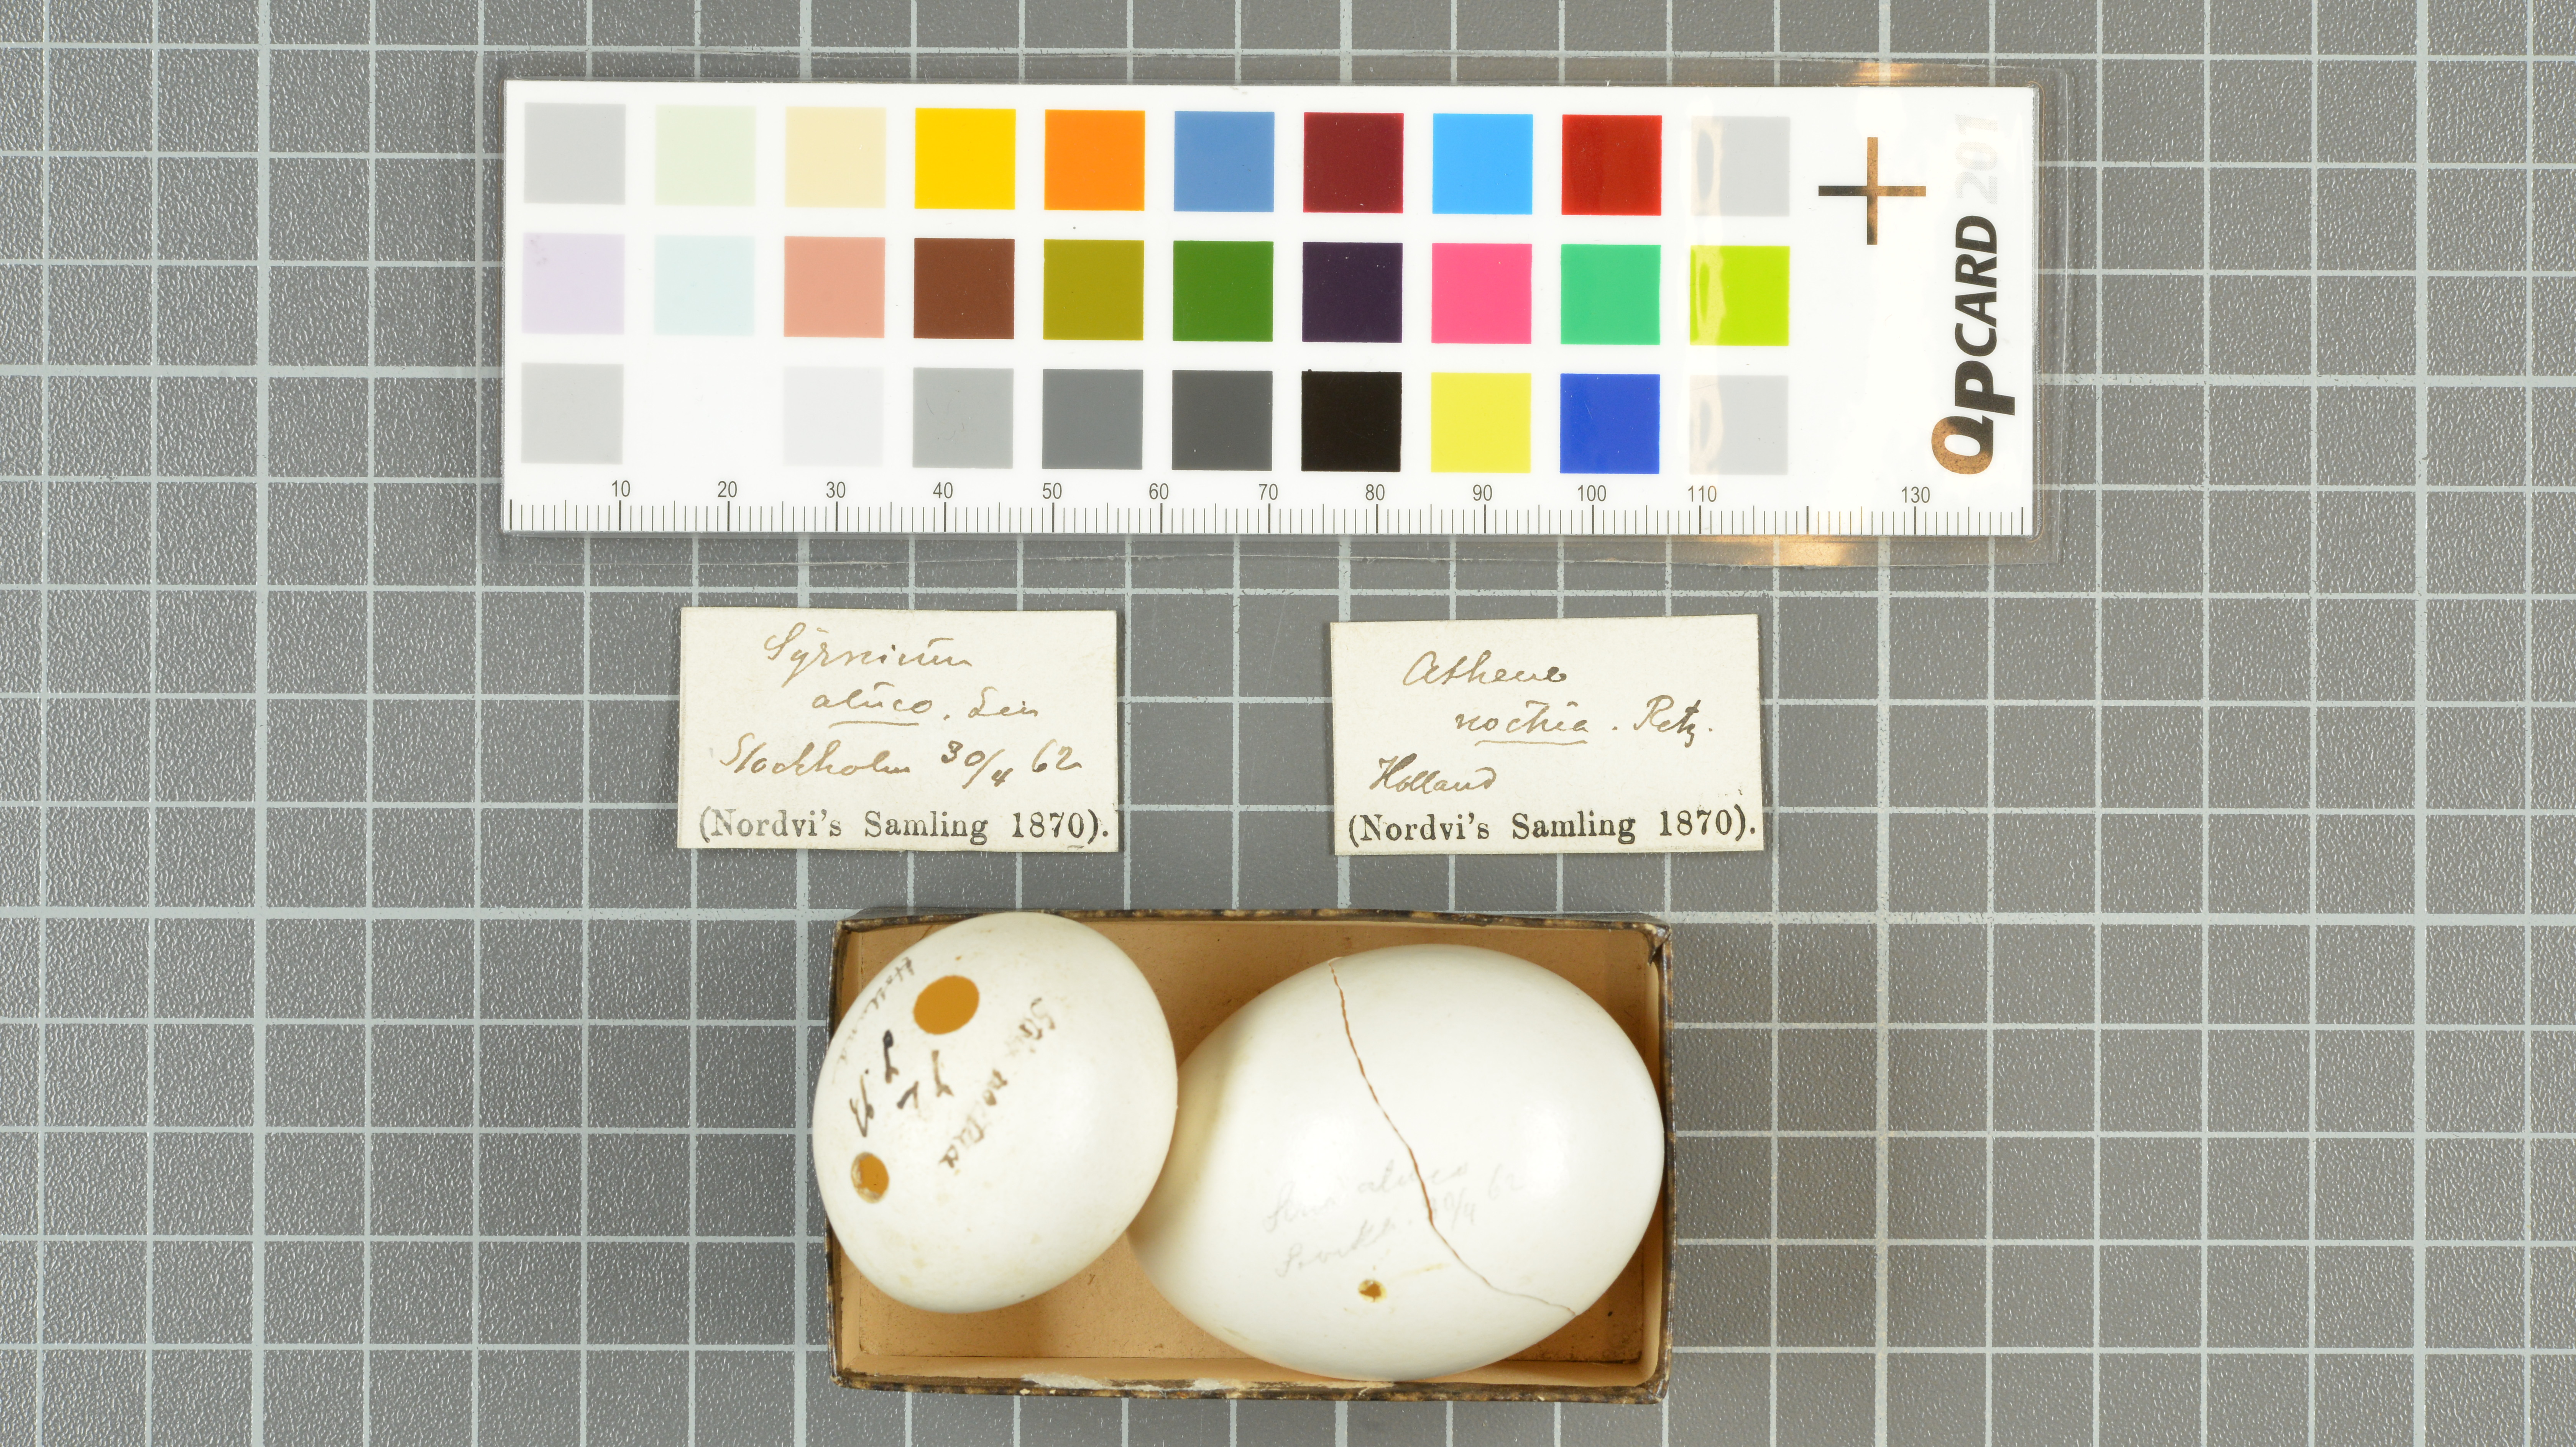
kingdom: Animalia
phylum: Chordata
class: Aves
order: Strigiformes
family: Strigidae
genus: Athene
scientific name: Athene noctua
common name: Little owl
